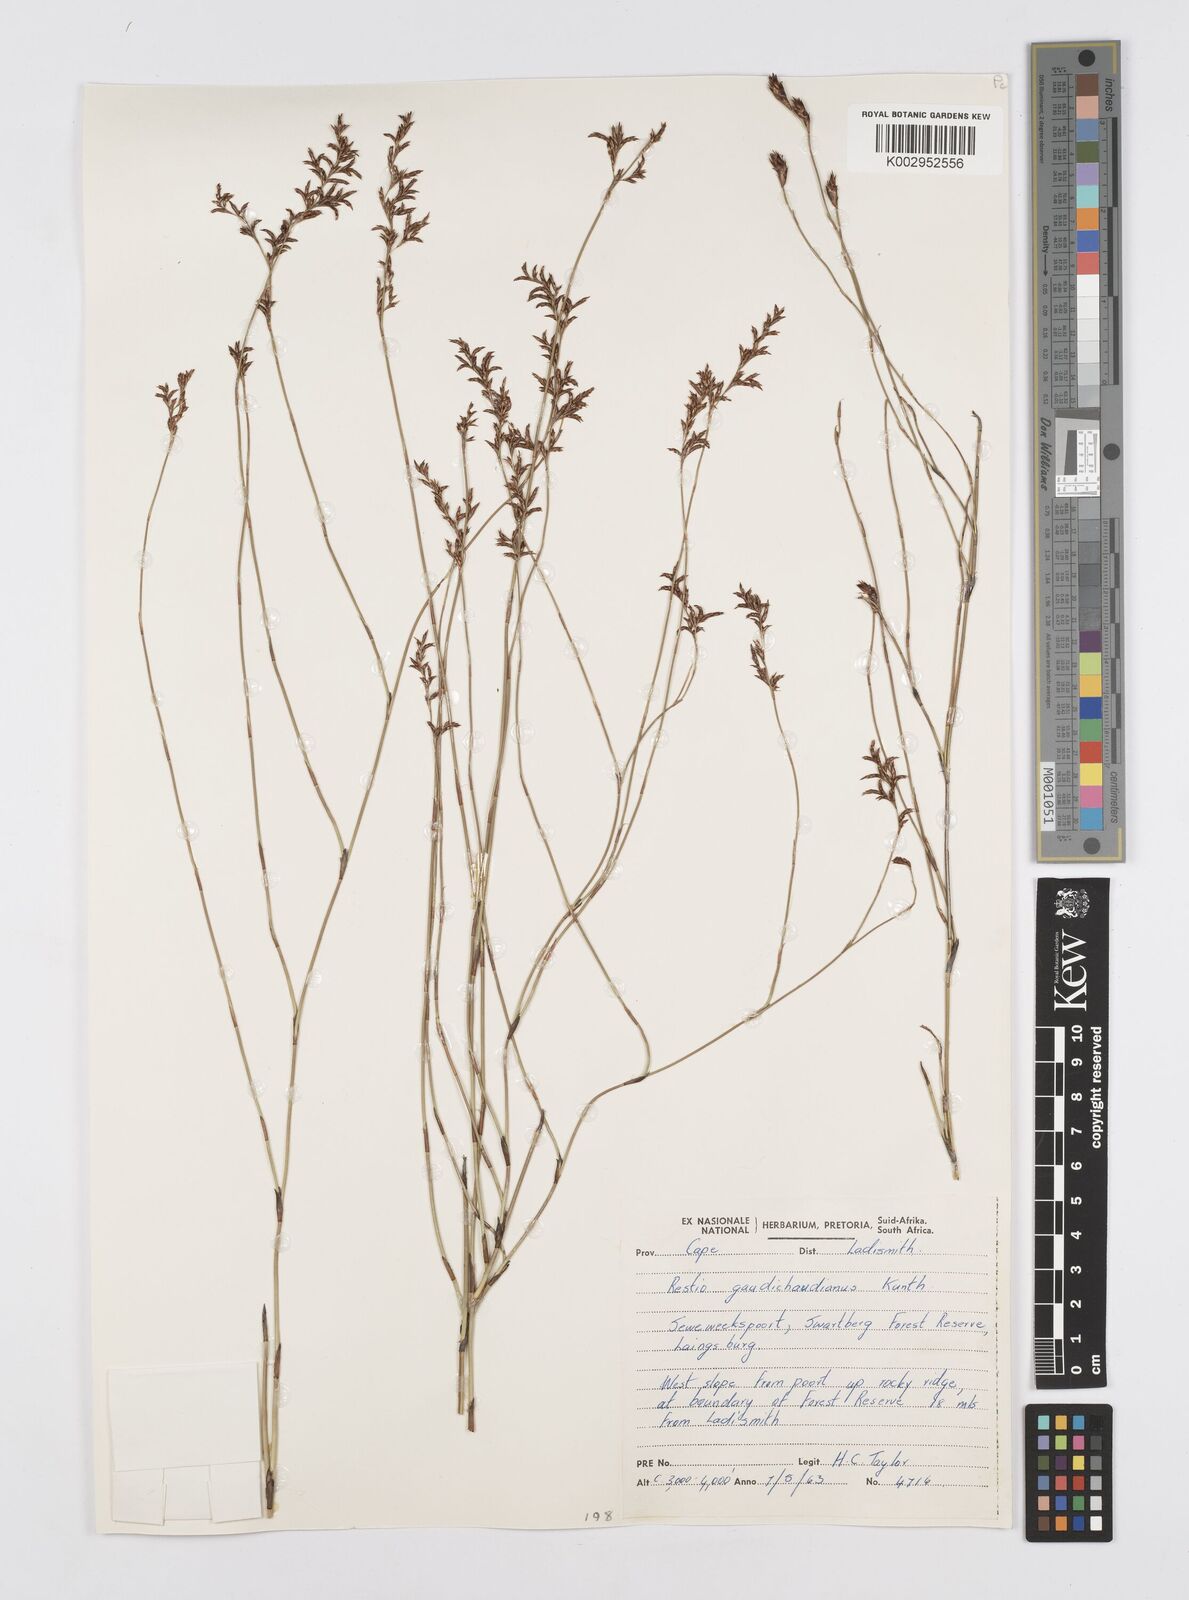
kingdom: Plantae
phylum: Tracheophyta
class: Liliopsida
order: Poales
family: Restionaceae
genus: Restio
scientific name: Restio gaudichaudianus
